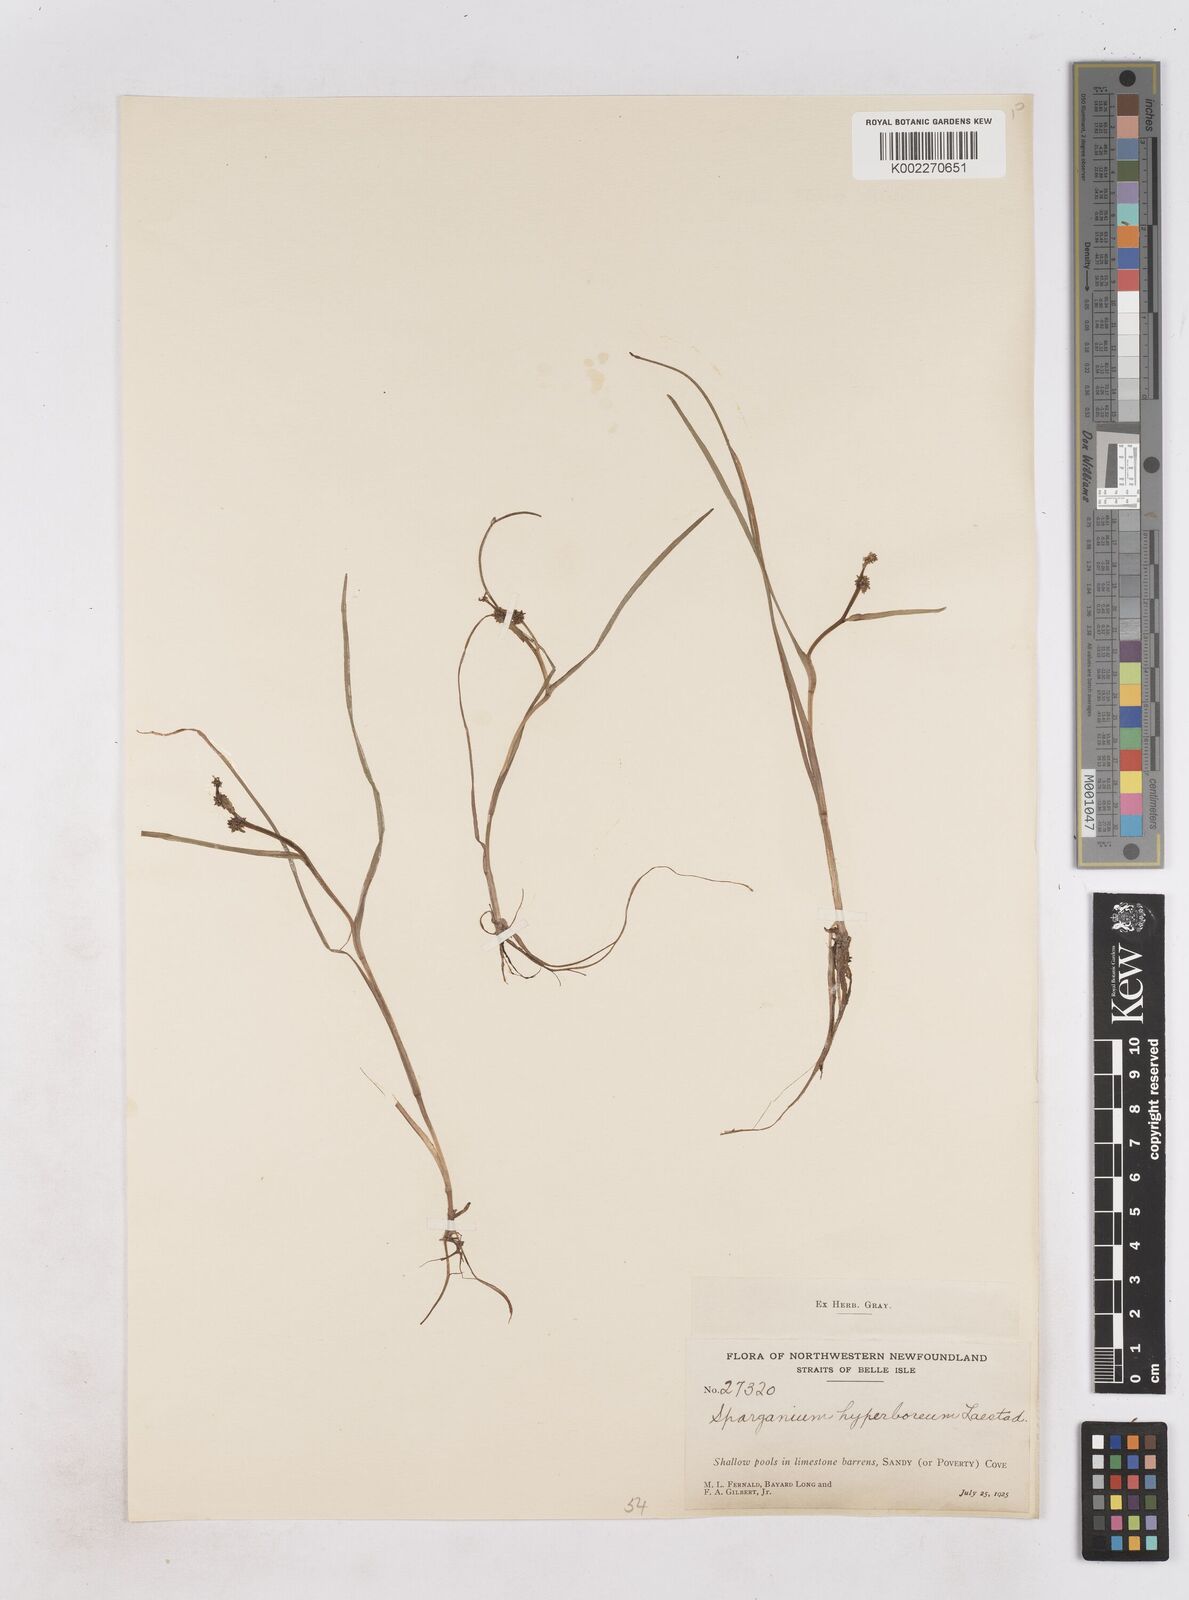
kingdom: Plantae
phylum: Tracheophyta
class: Liliopsida
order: Poales
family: Typhaceae
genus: Sparganium
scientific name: Sparganium hyperboreum
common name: Arctic burreed
